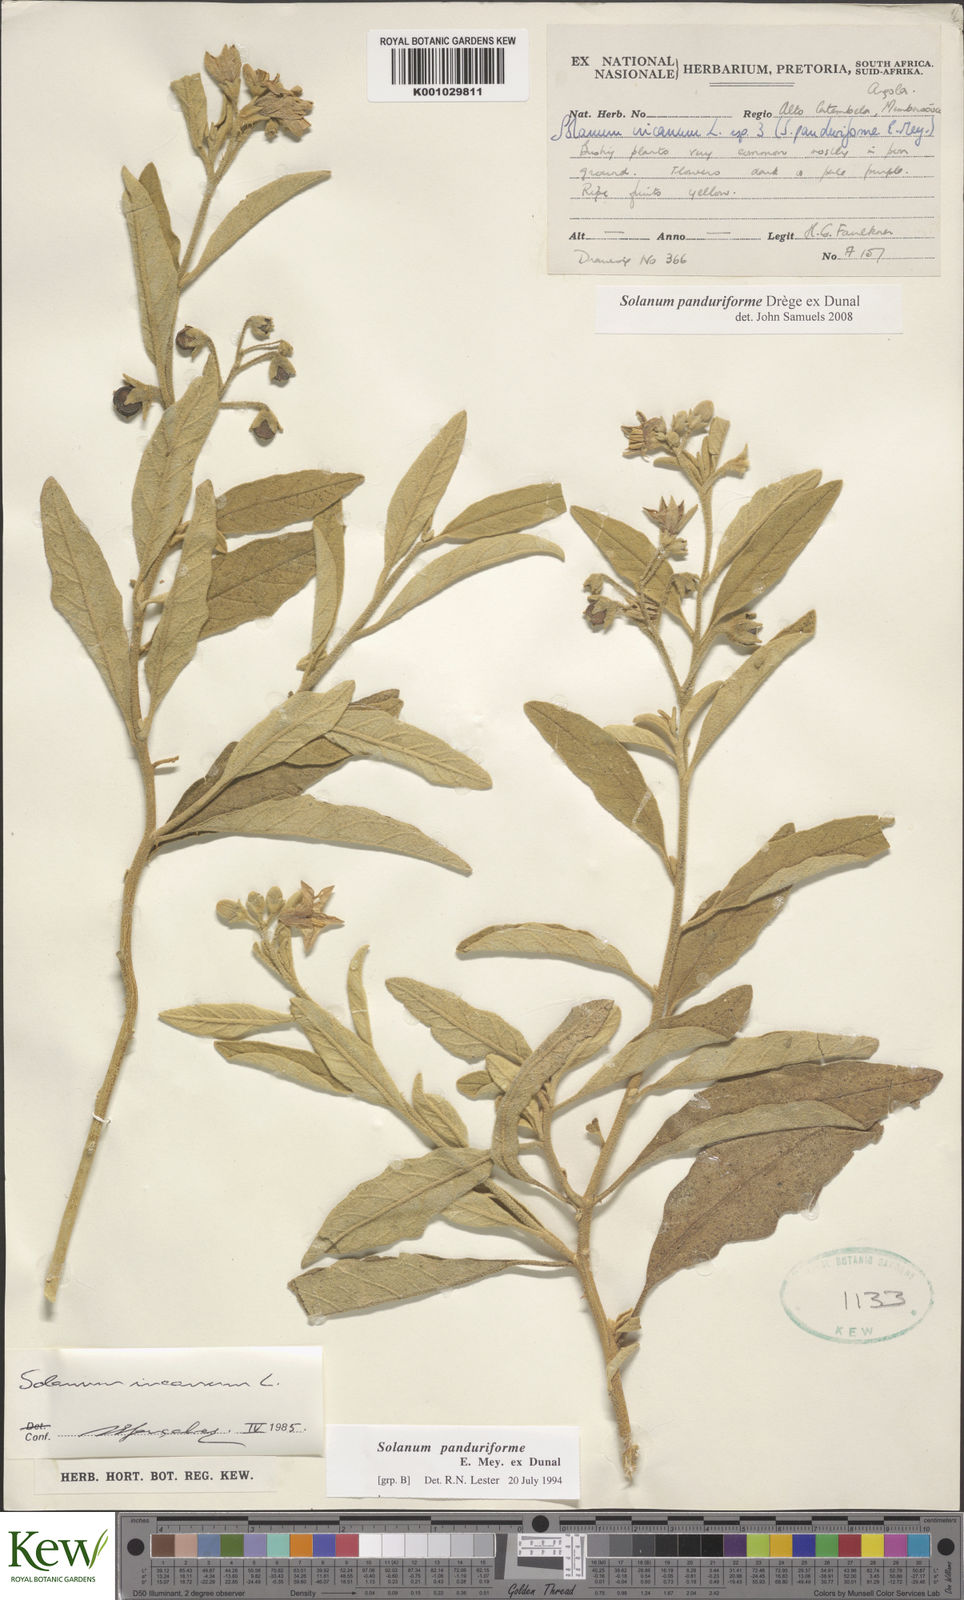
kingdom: Plantae
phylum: Tracheophyta
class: Magnoliopsida
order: Solanales
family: Solanaceae
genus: Solanum
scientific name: Solanum campylacanthum
